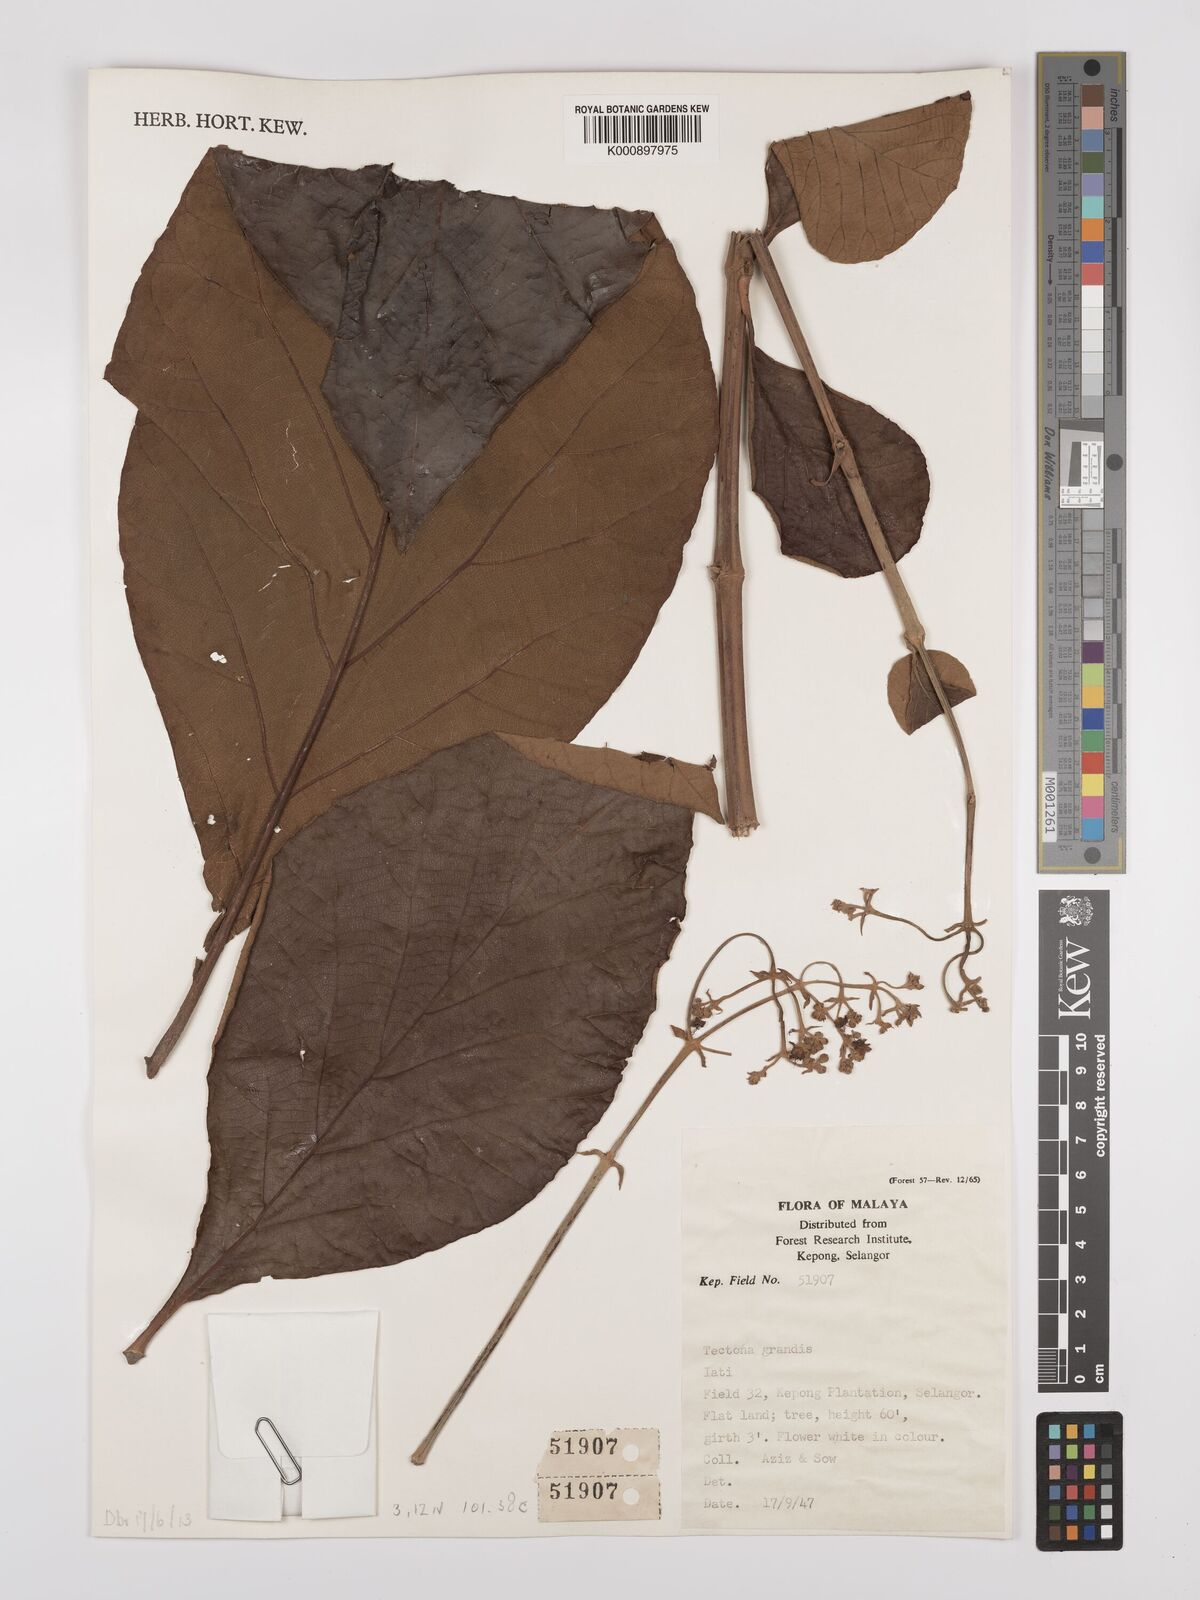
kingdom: Plantae
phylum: Tracheophyta
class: Magnoliopsida
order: Lamiales
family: Lamiaceae
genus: Tectona
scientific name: Tectona grandis
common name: Teak
